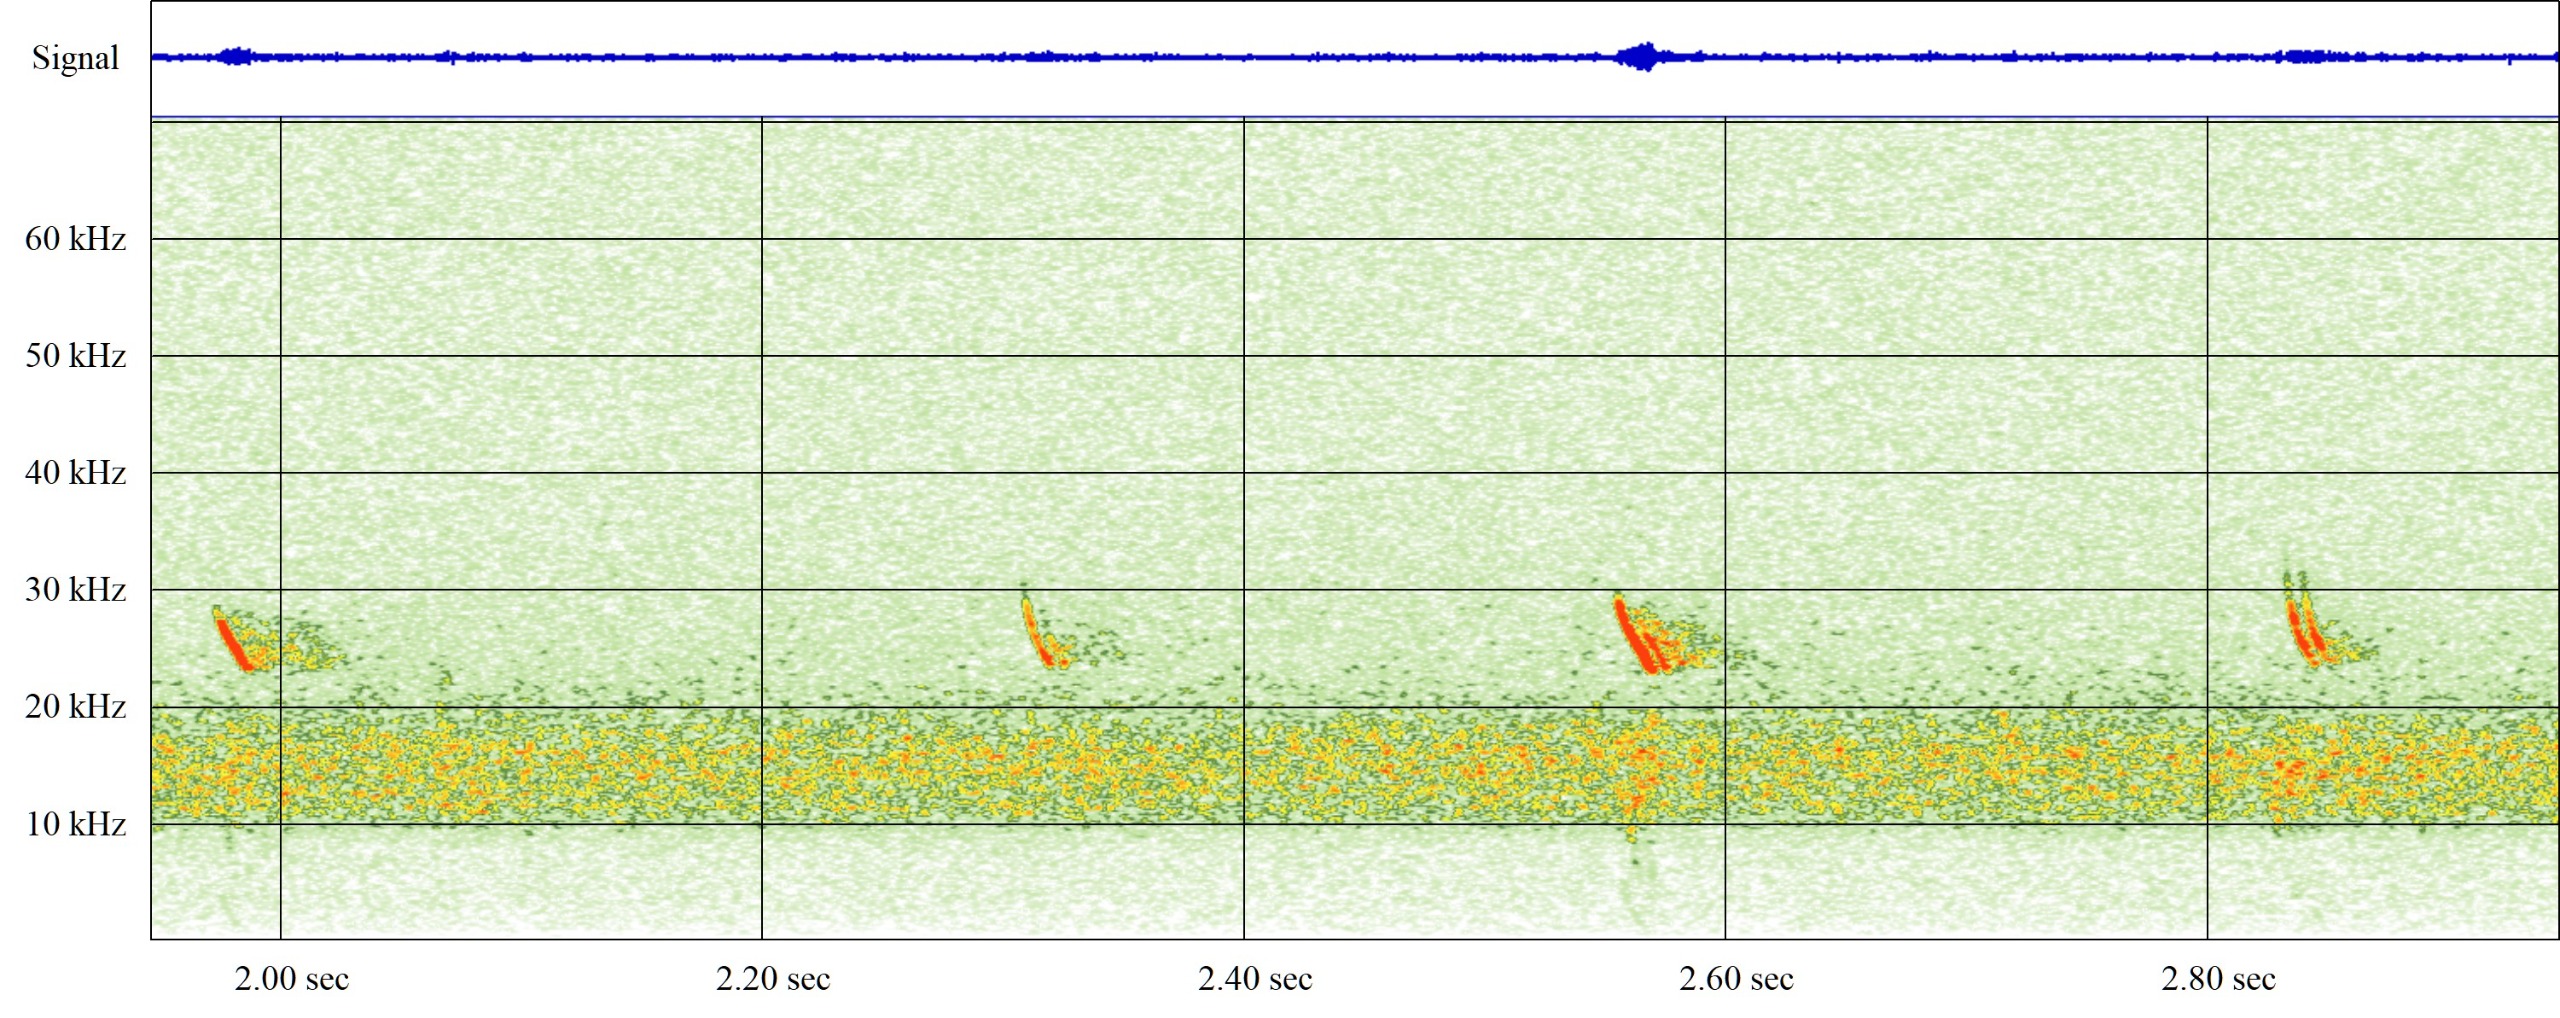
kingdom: Animalia
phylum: Chordata
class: Mammalia
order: Chiroptera
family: Vespertilionidae
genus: Vespertilio
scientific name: Vespertilio murinus
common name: Skimmelflagermus
